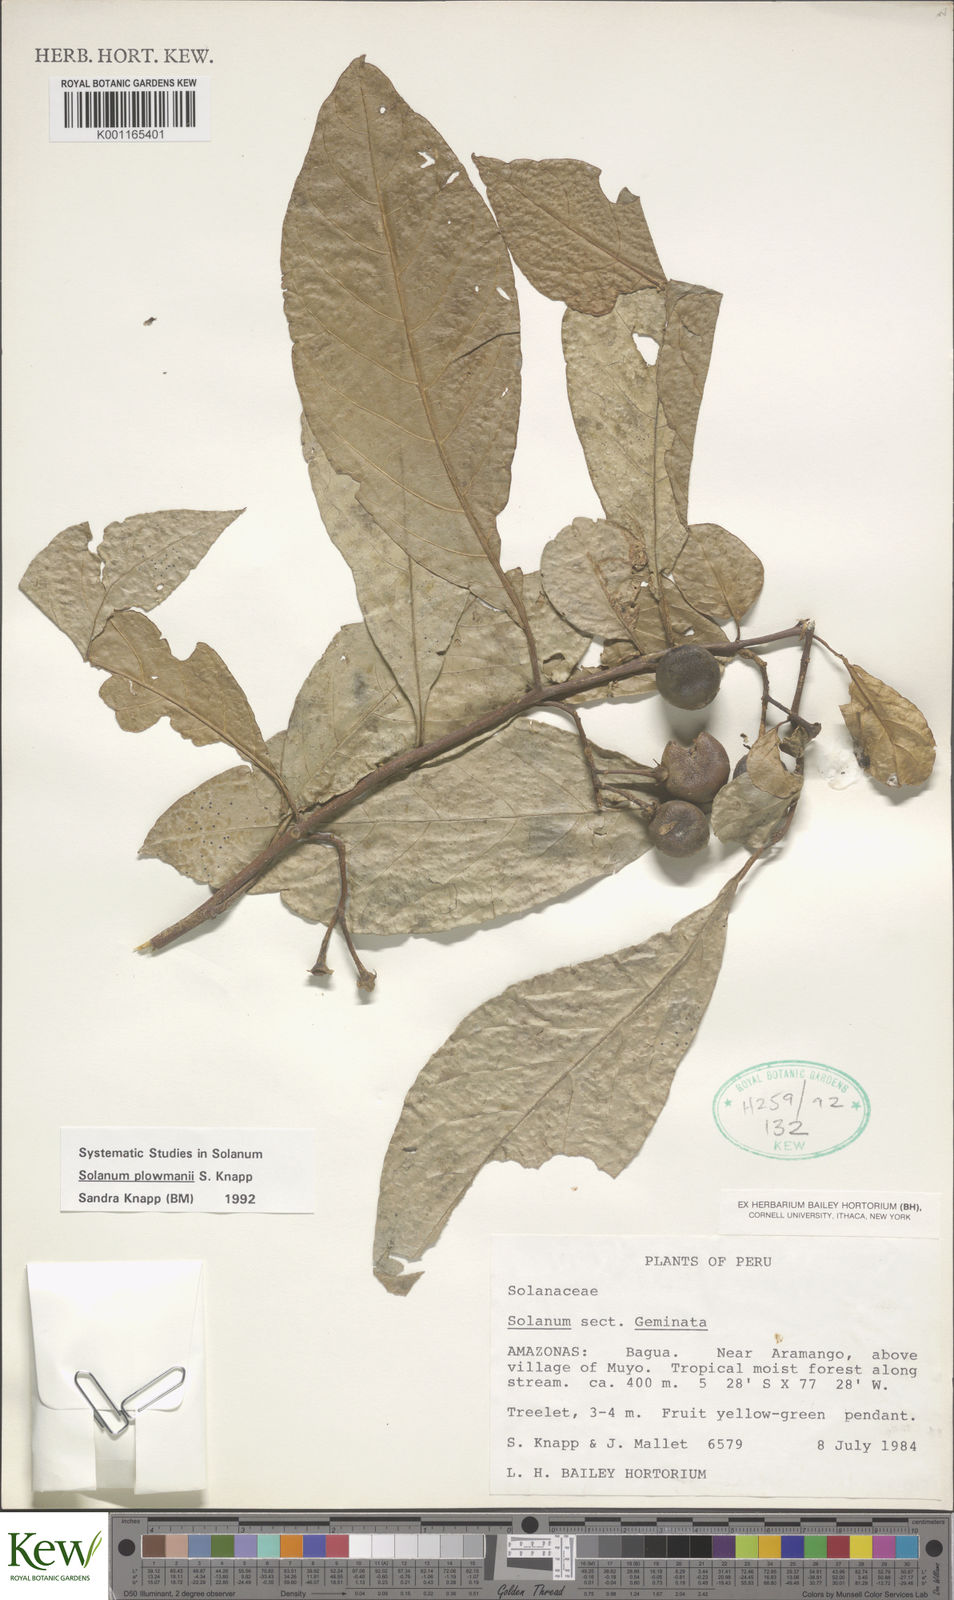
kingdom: Plantae
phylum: Tracheophyta
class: Magnoliopsida
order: Solanales
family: Solanaceae
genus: Solanum
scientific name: Solanum plowmanii
